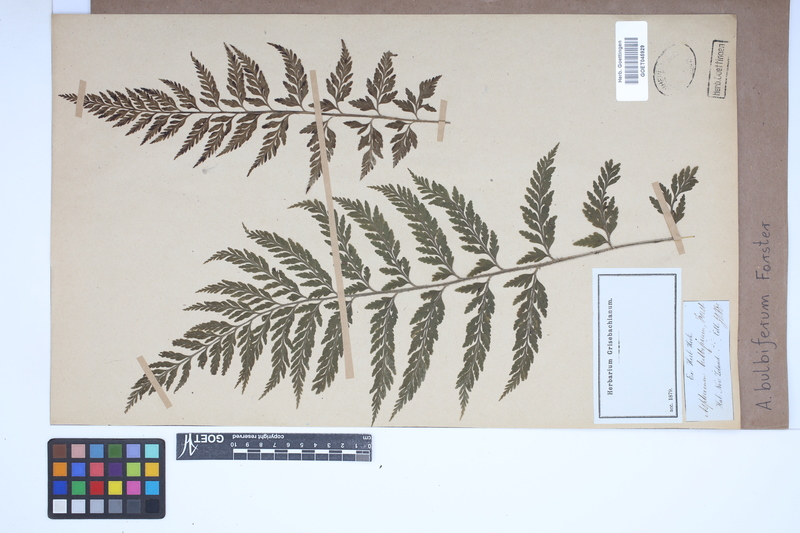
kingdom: Plantae
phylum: Tracheophyta
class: Polypodiopsida
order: Polypodiales
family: Aspleniaceae
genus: Asplenium
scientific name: Asplenium bulbiferum
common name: Mother fern
